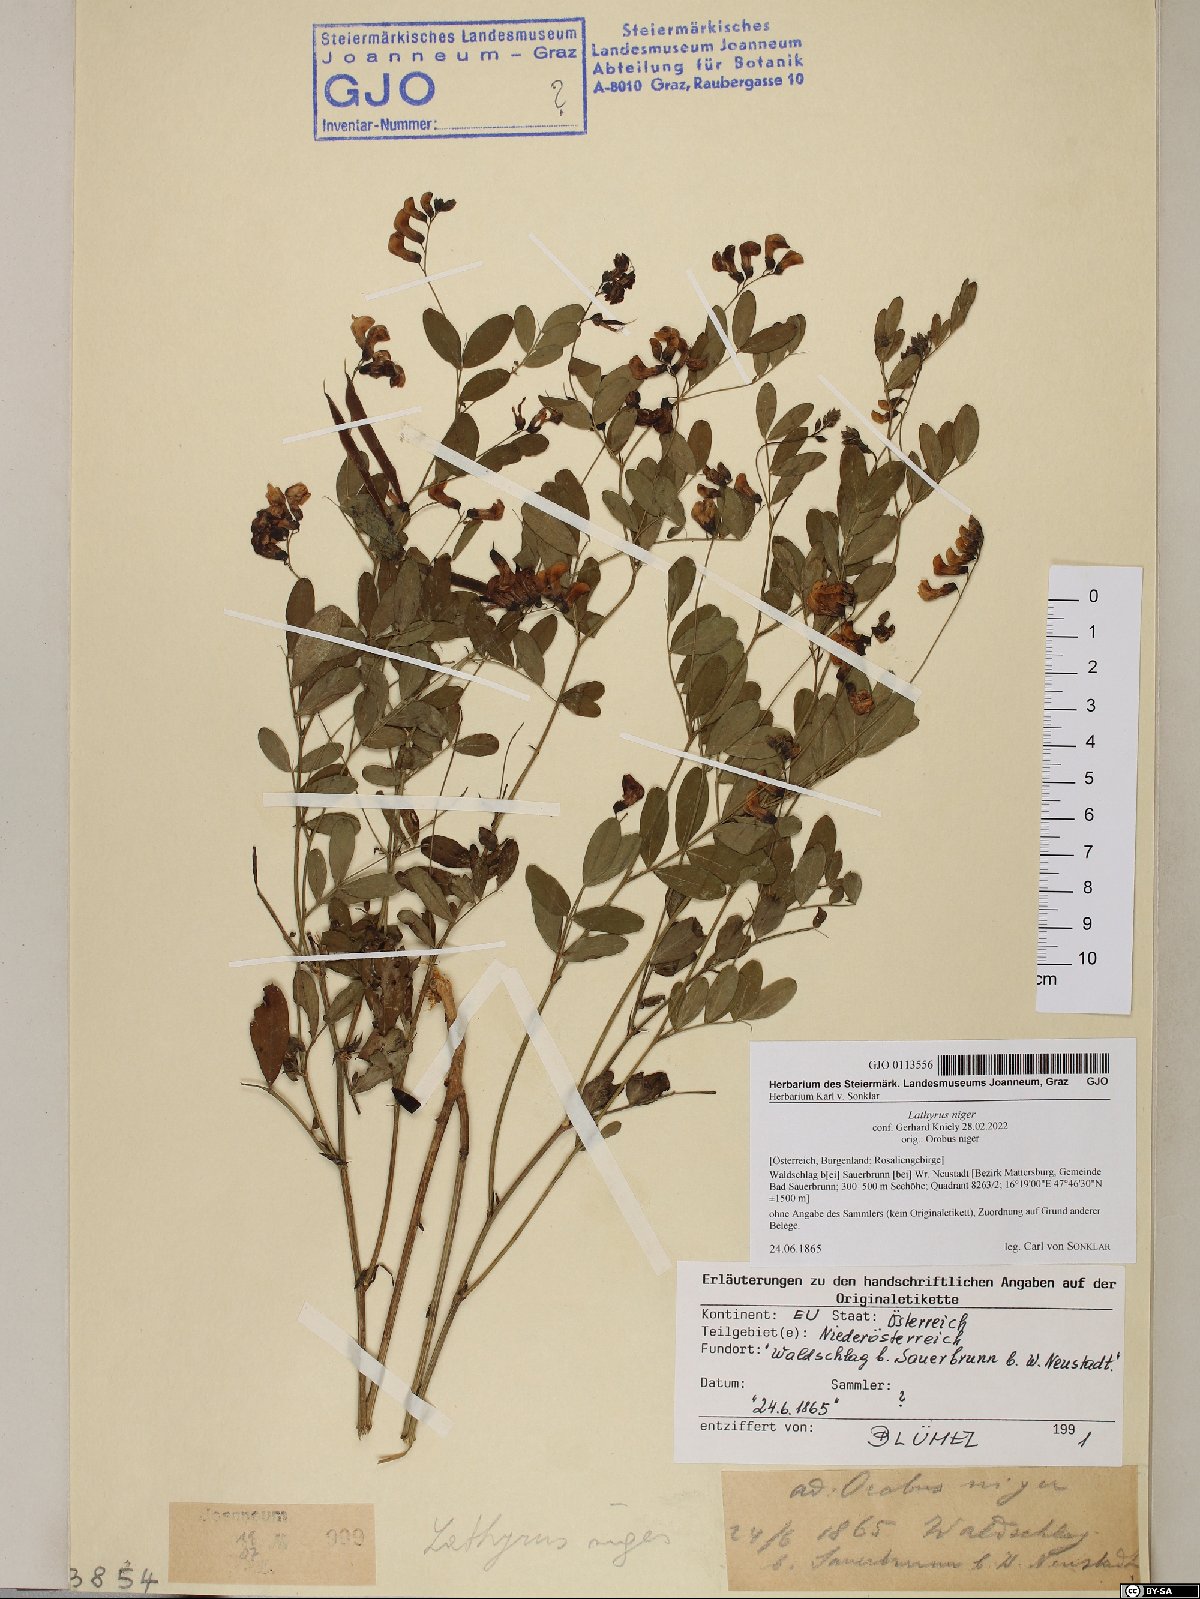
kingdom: Plantae
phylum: Tracheophyta
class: Magnoliopsida
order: Fabales
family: Fabaceae
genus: Lathyrus
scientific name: Lathyrus niger
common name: Black pea
